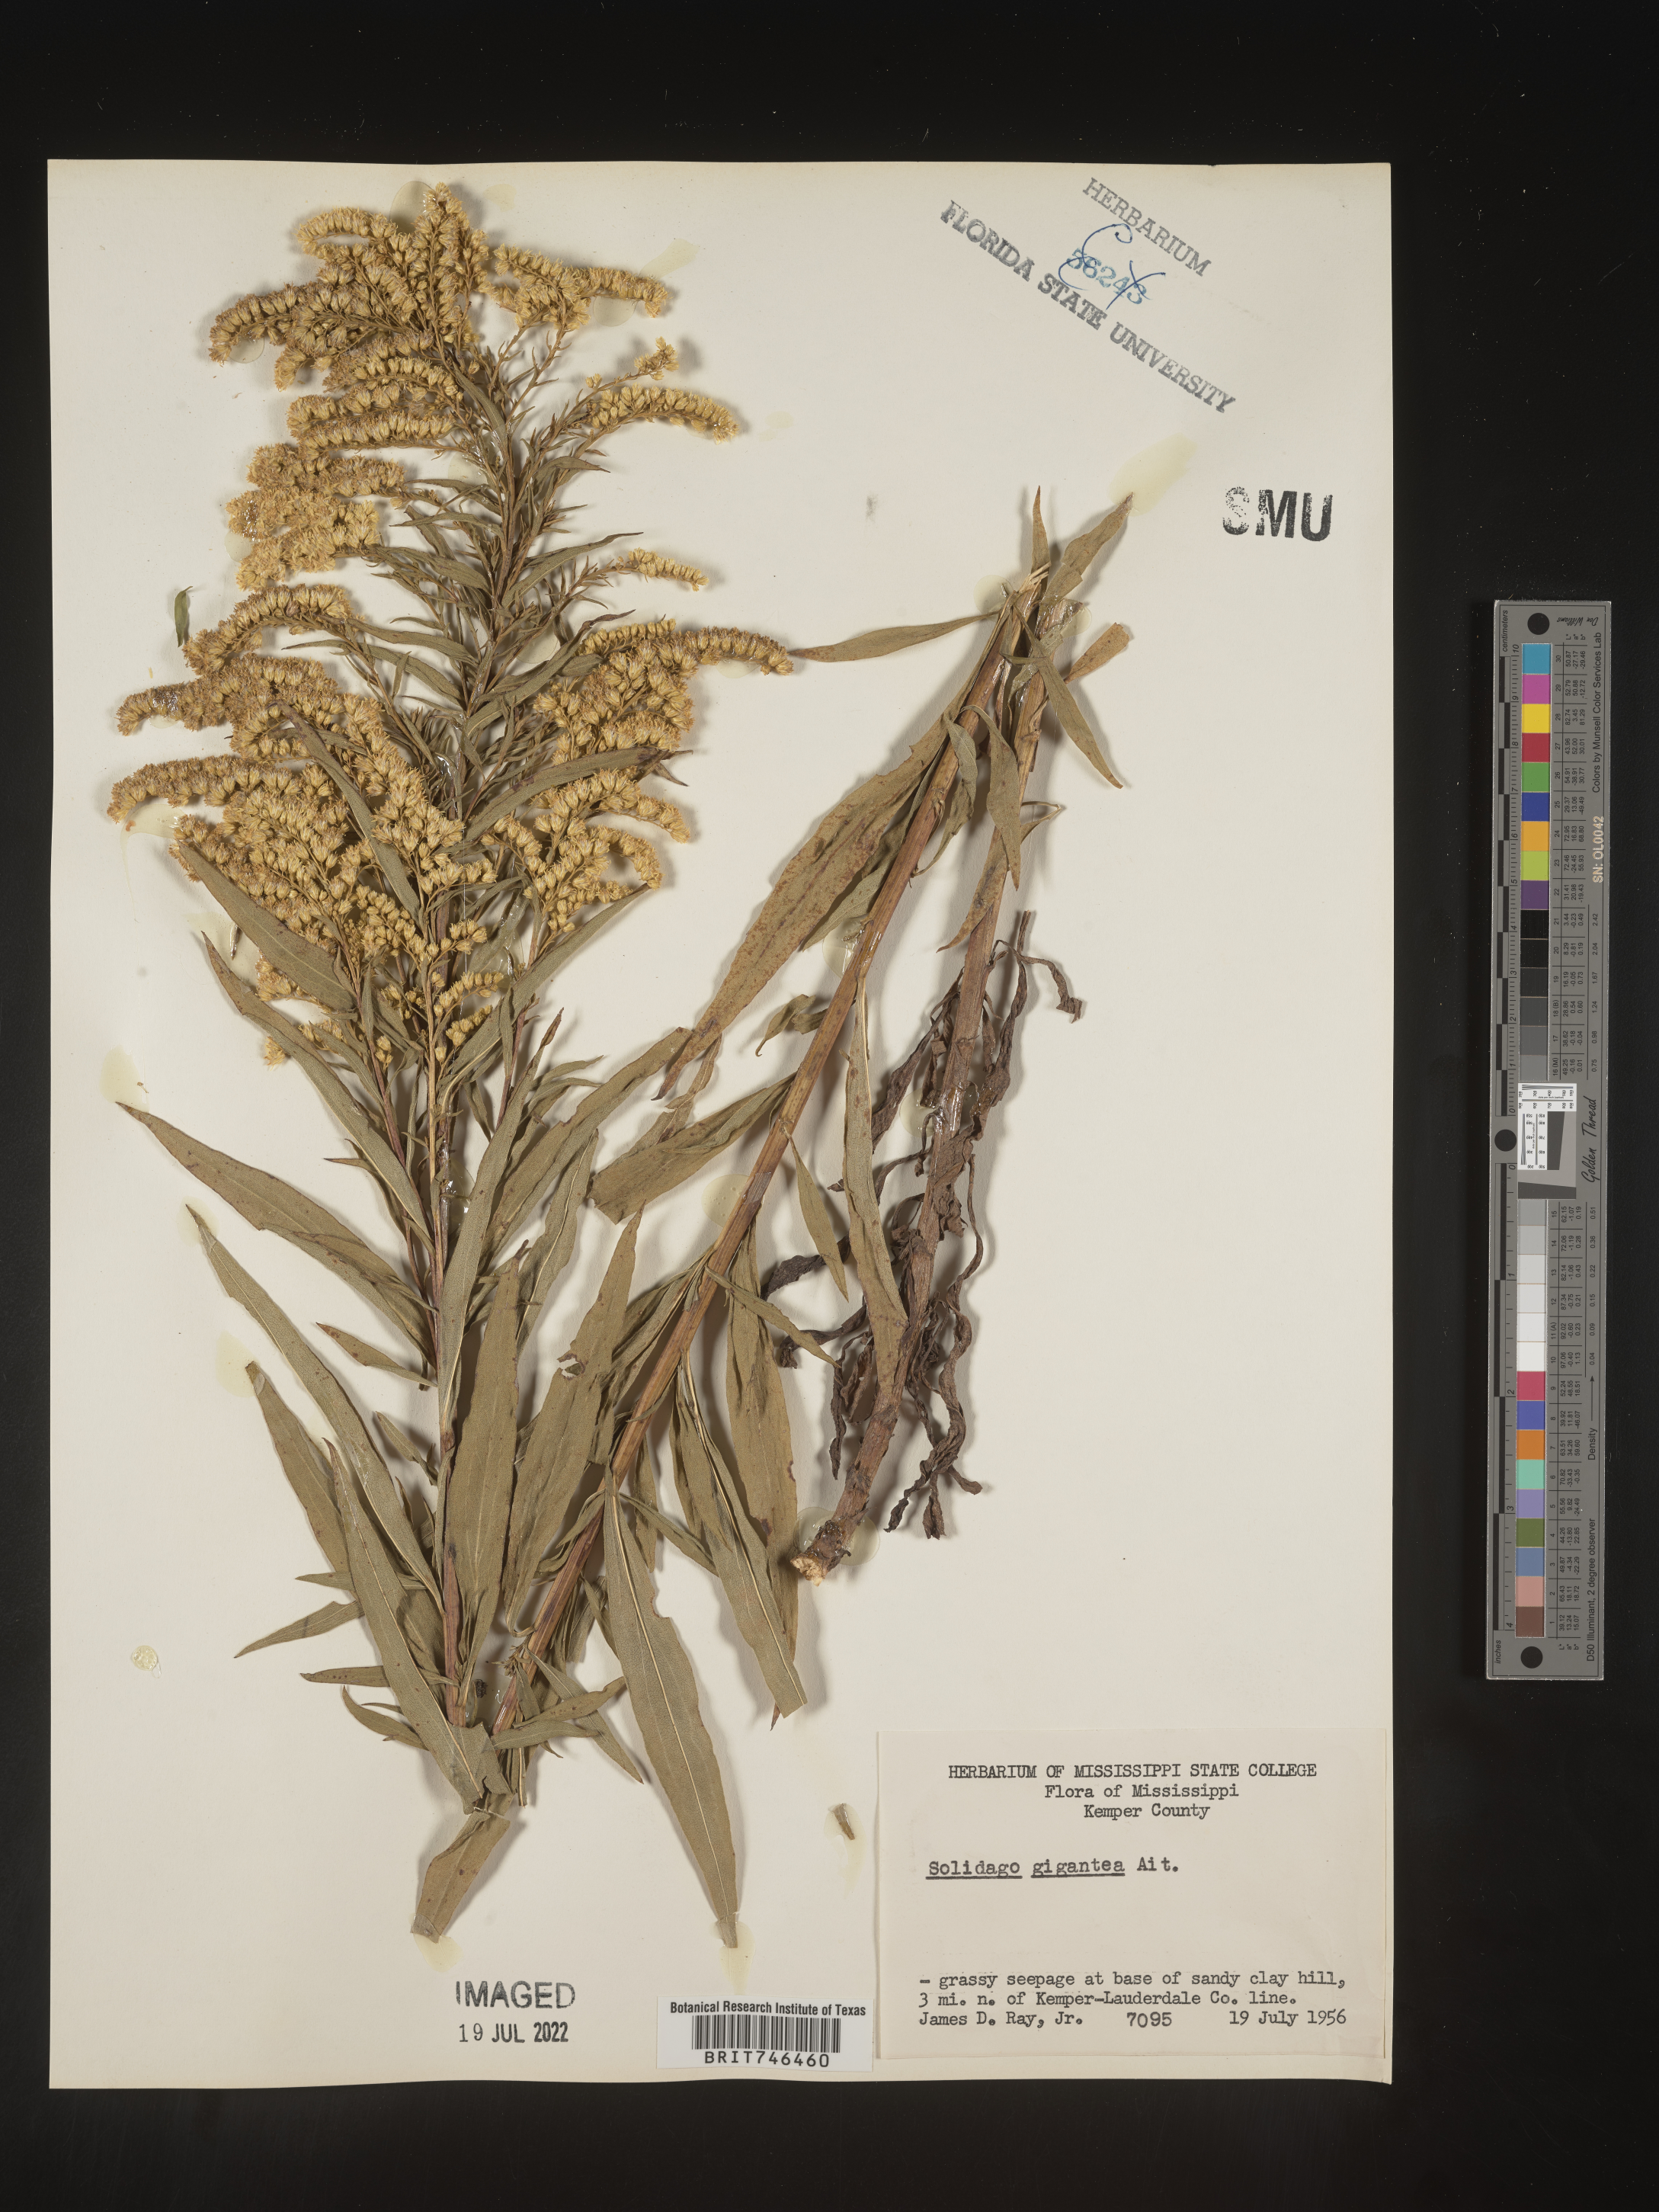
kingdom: Plantae
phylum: Tracheophyta
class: Magnoliopsida
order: Asterales
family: Asteraceae
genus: Solidago
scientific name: Solidago gigantea
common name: Giant goldenrod
